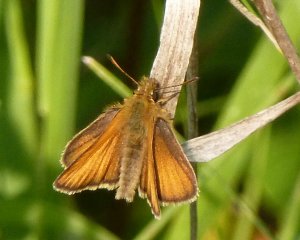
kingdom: Animalia
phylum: Arthropoda
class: Insecta
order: Lepidoptera
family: Hesperiidae
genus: Thymelicus
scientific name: Thymelicus lineola
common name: European Skipper
